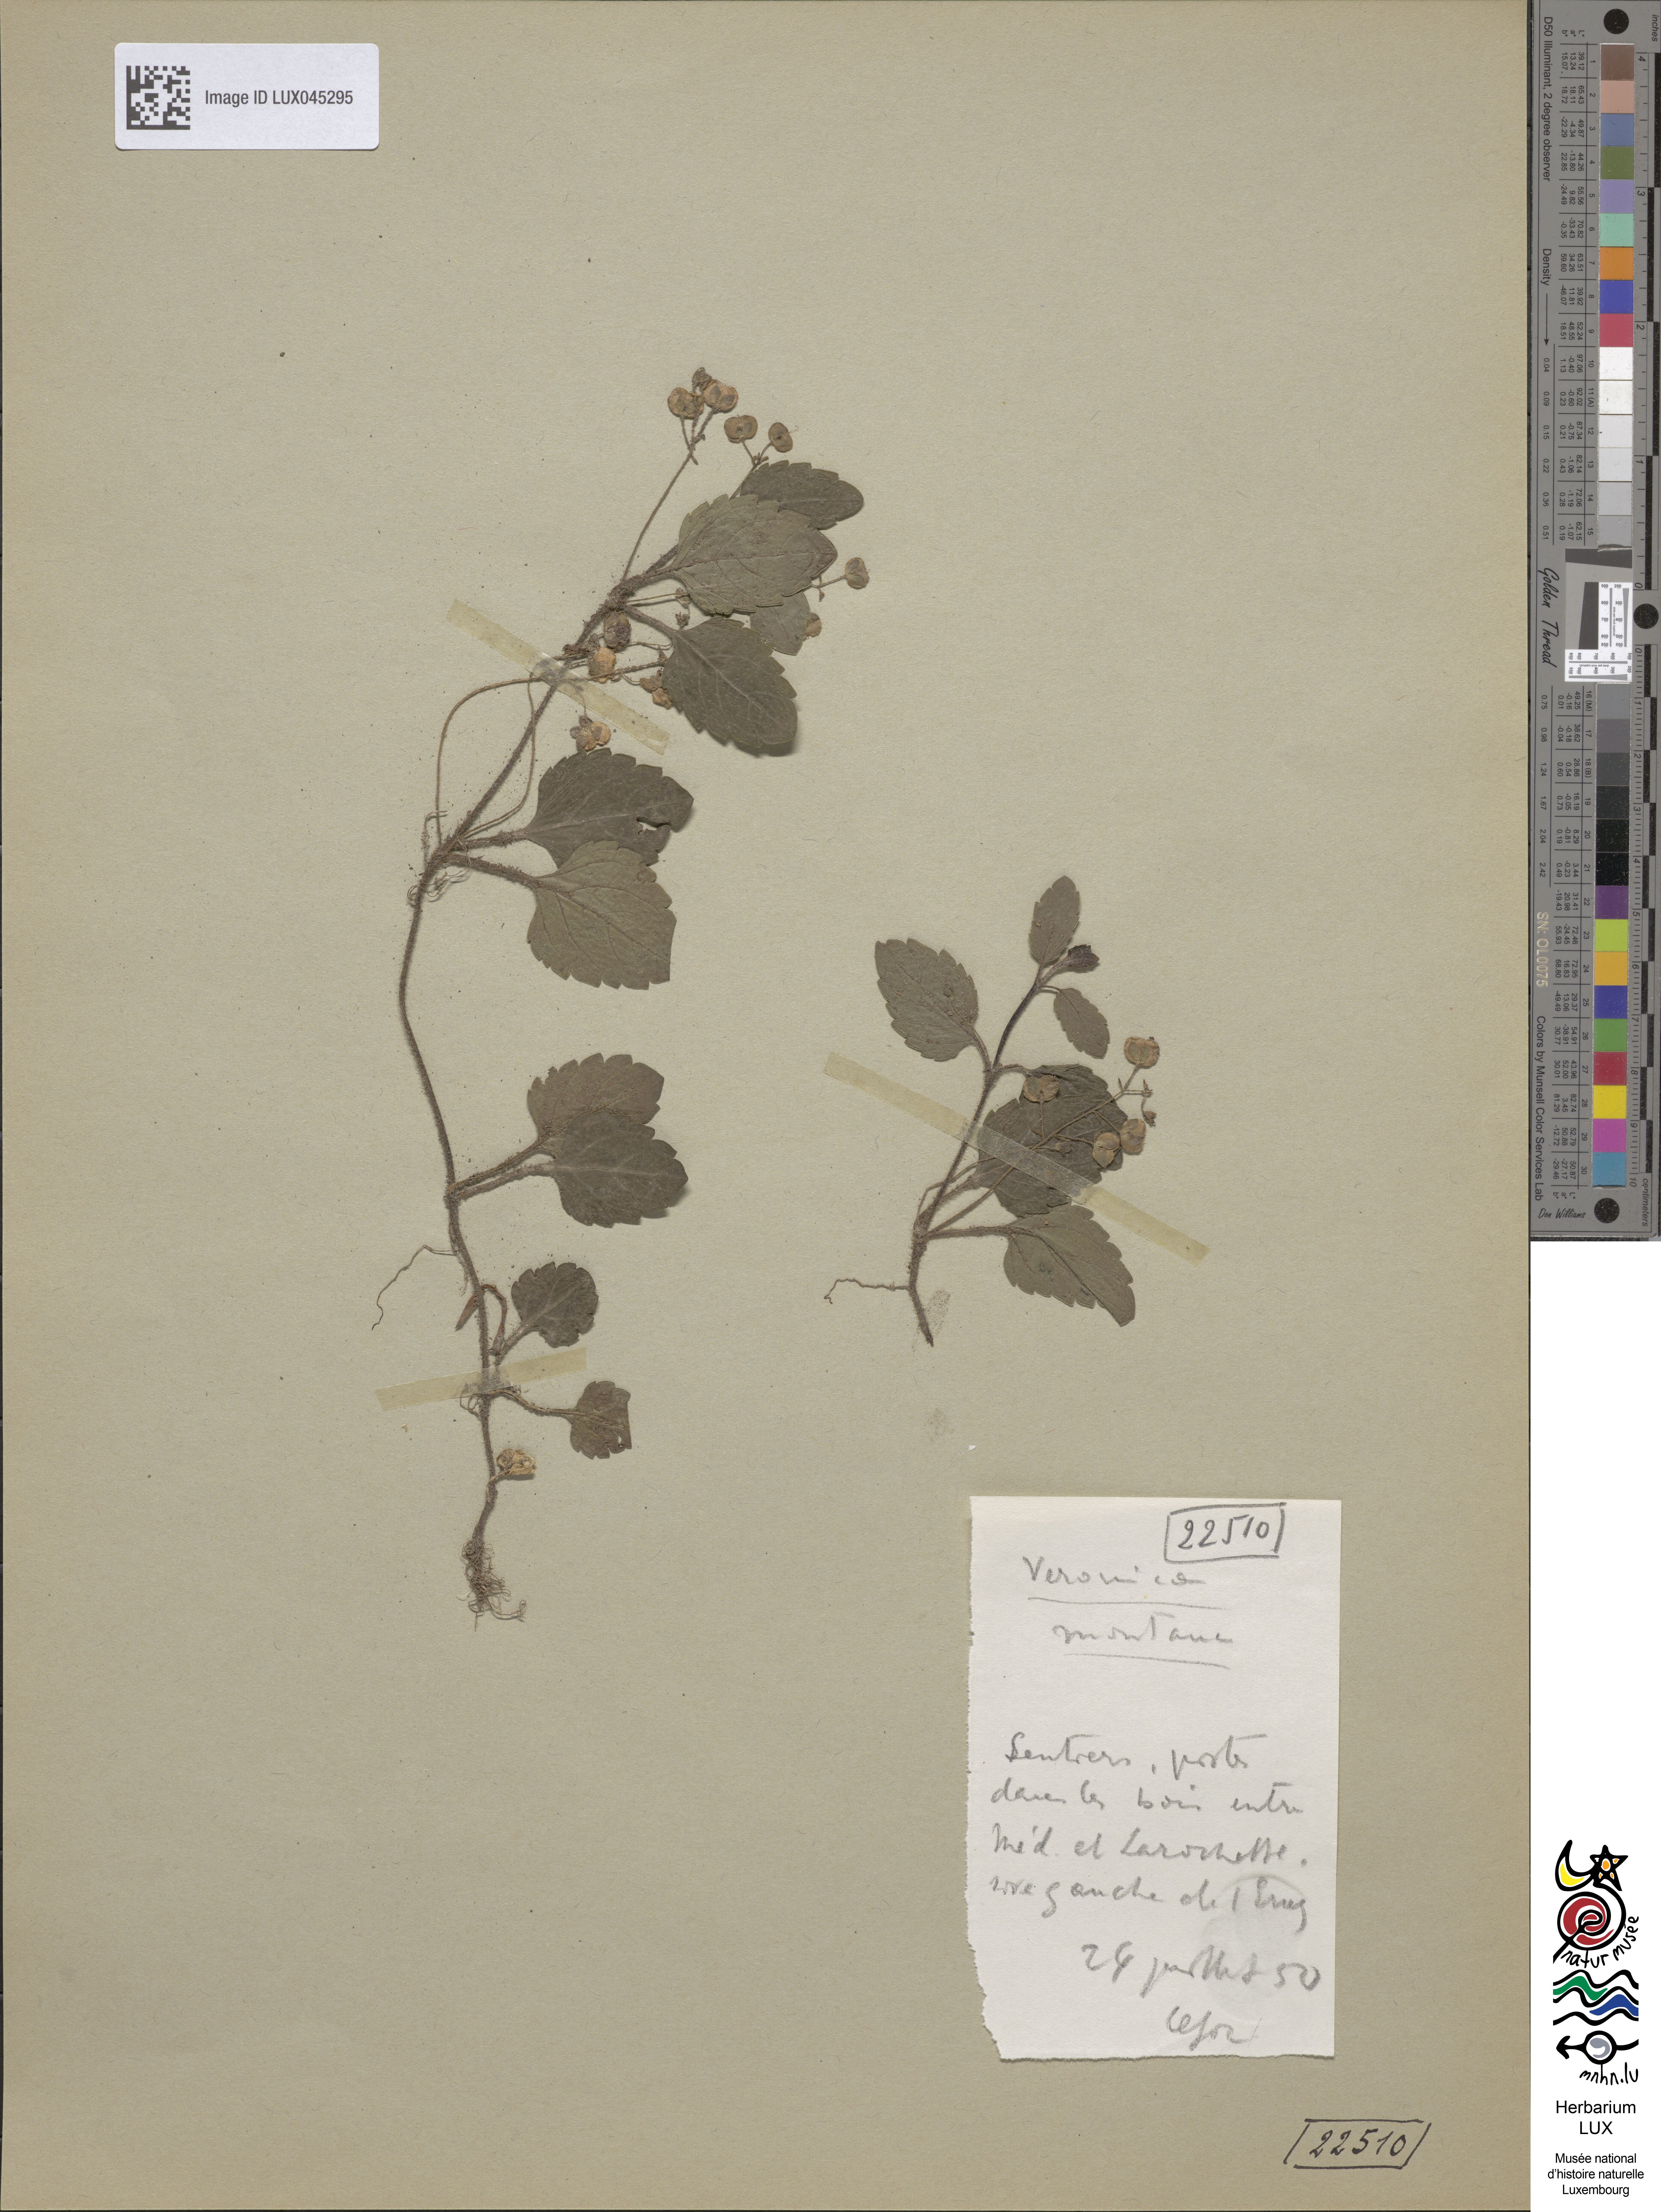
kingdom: Plantae
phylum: Tracheophyta
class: Magnoliopsida
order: Lamiales
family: Plantaginaceae
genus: Veronica
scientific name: Veronica montana
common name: Wood speedwell
